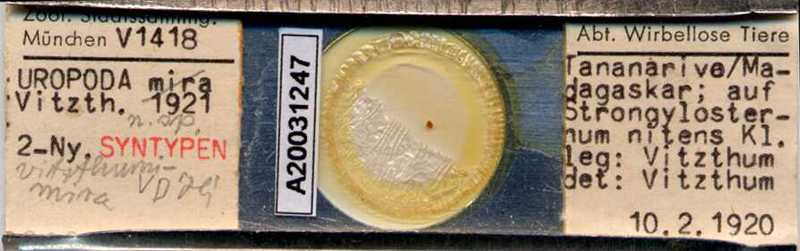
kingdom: Animalia
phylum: Arthropoda
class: Arachnida
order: Mesostigmata
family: Uropodidae
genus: Uropoda
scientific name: Uropoda
